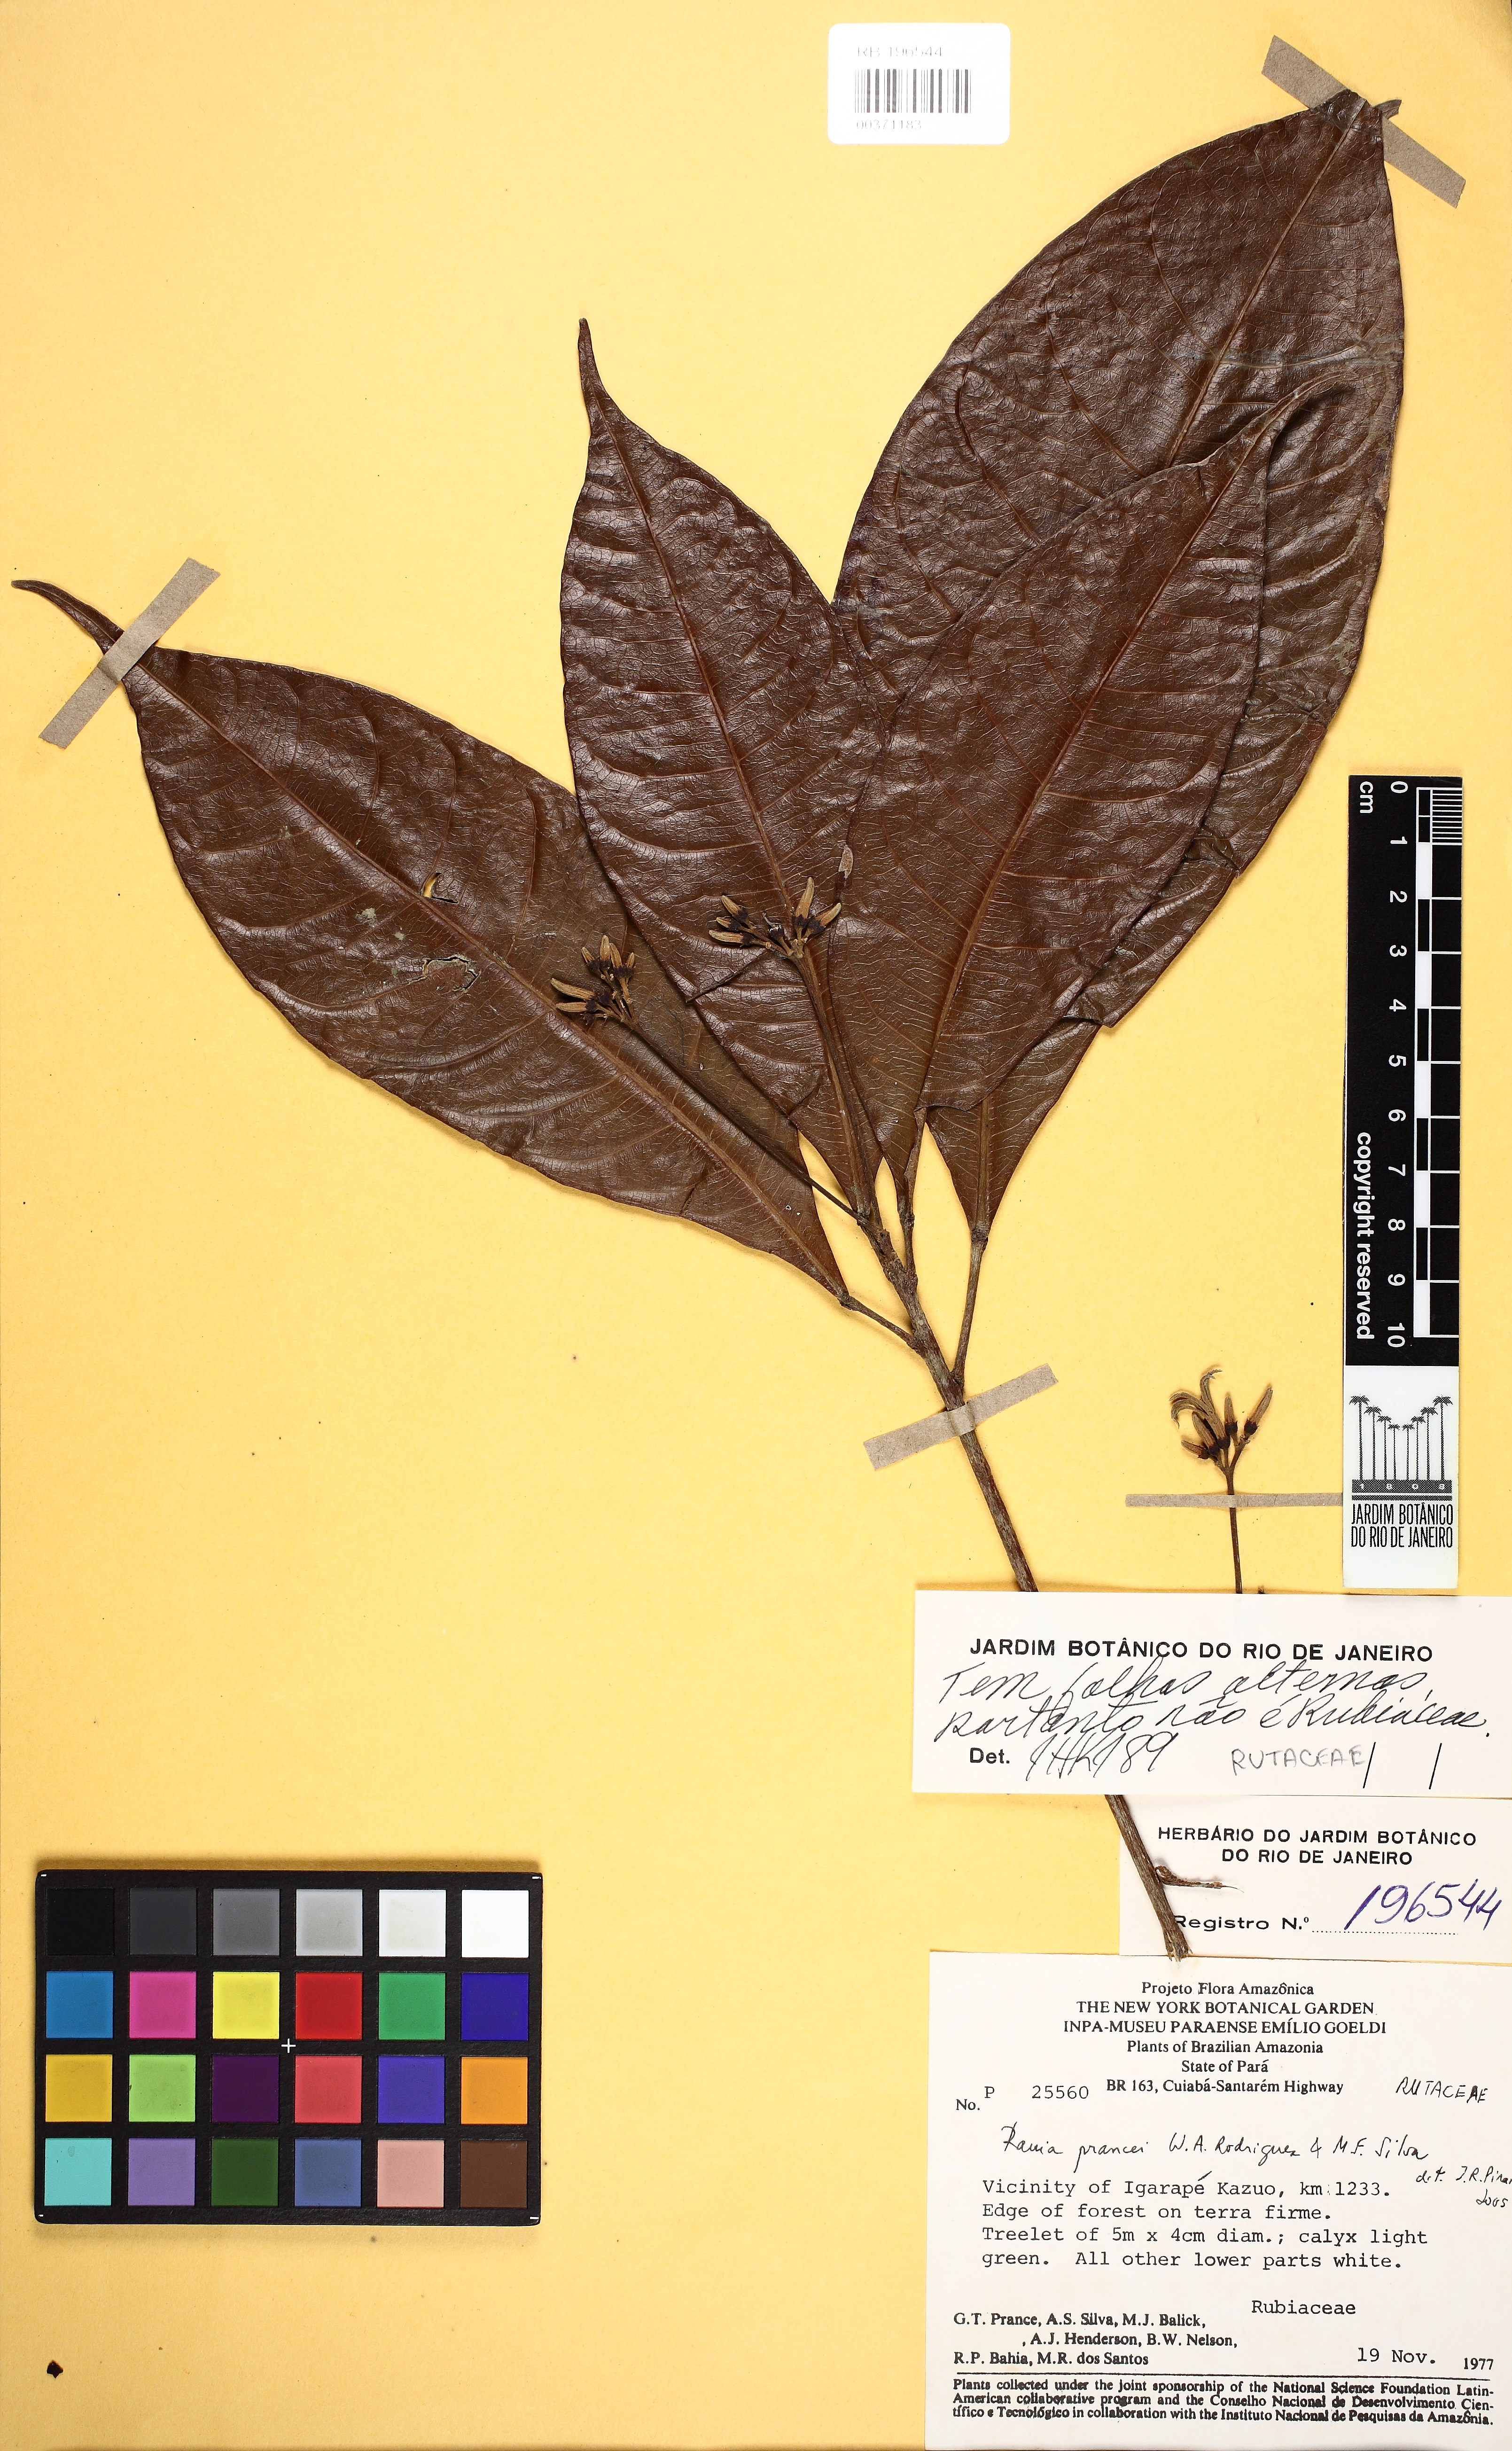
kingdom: Plantae
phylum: Tracheophyta
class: Magnoliopsida
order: Sapindales
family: Rutaceae
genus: Rauia
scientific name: Rauia prancei
